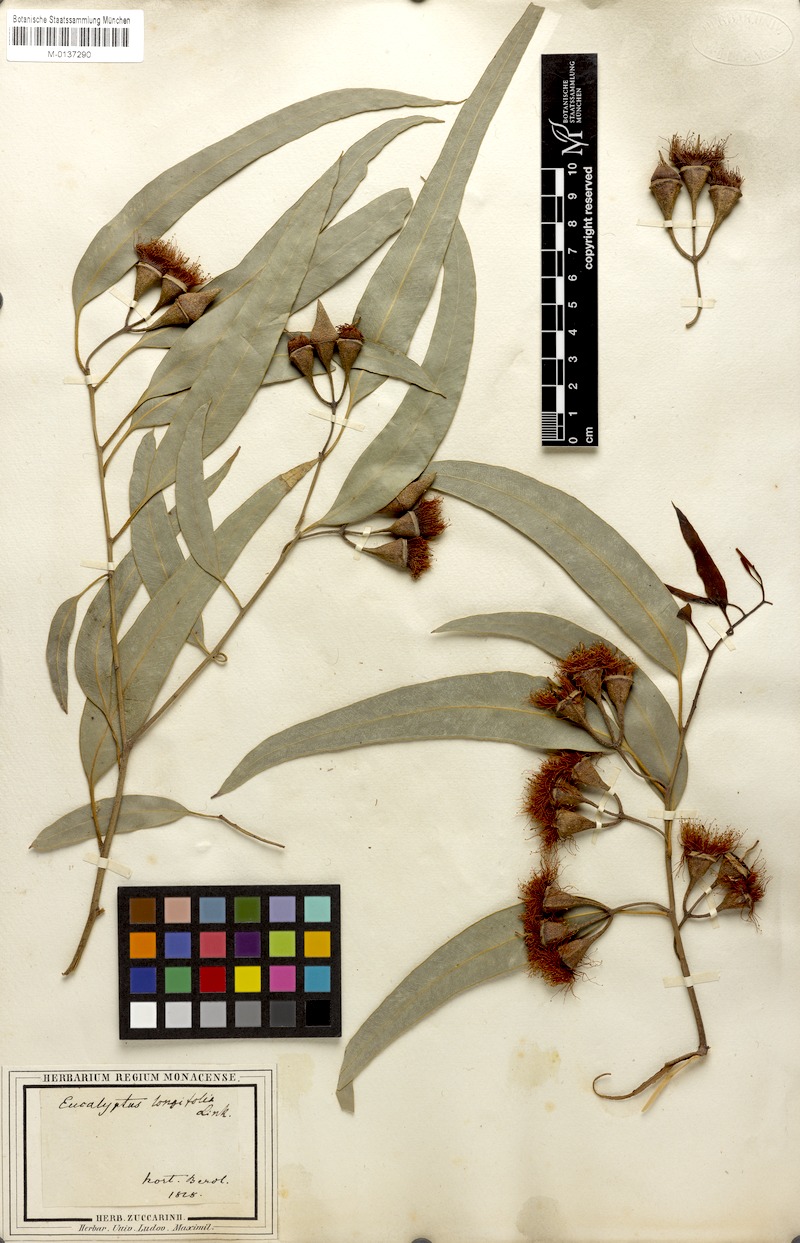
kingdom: Plantae
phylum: Tracheophyta
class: Magnoliopsida
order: Myrtales
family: Myrtaceae
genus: Eucalyptus
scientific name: Eucalyptus longifolia
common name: Woollybutt
